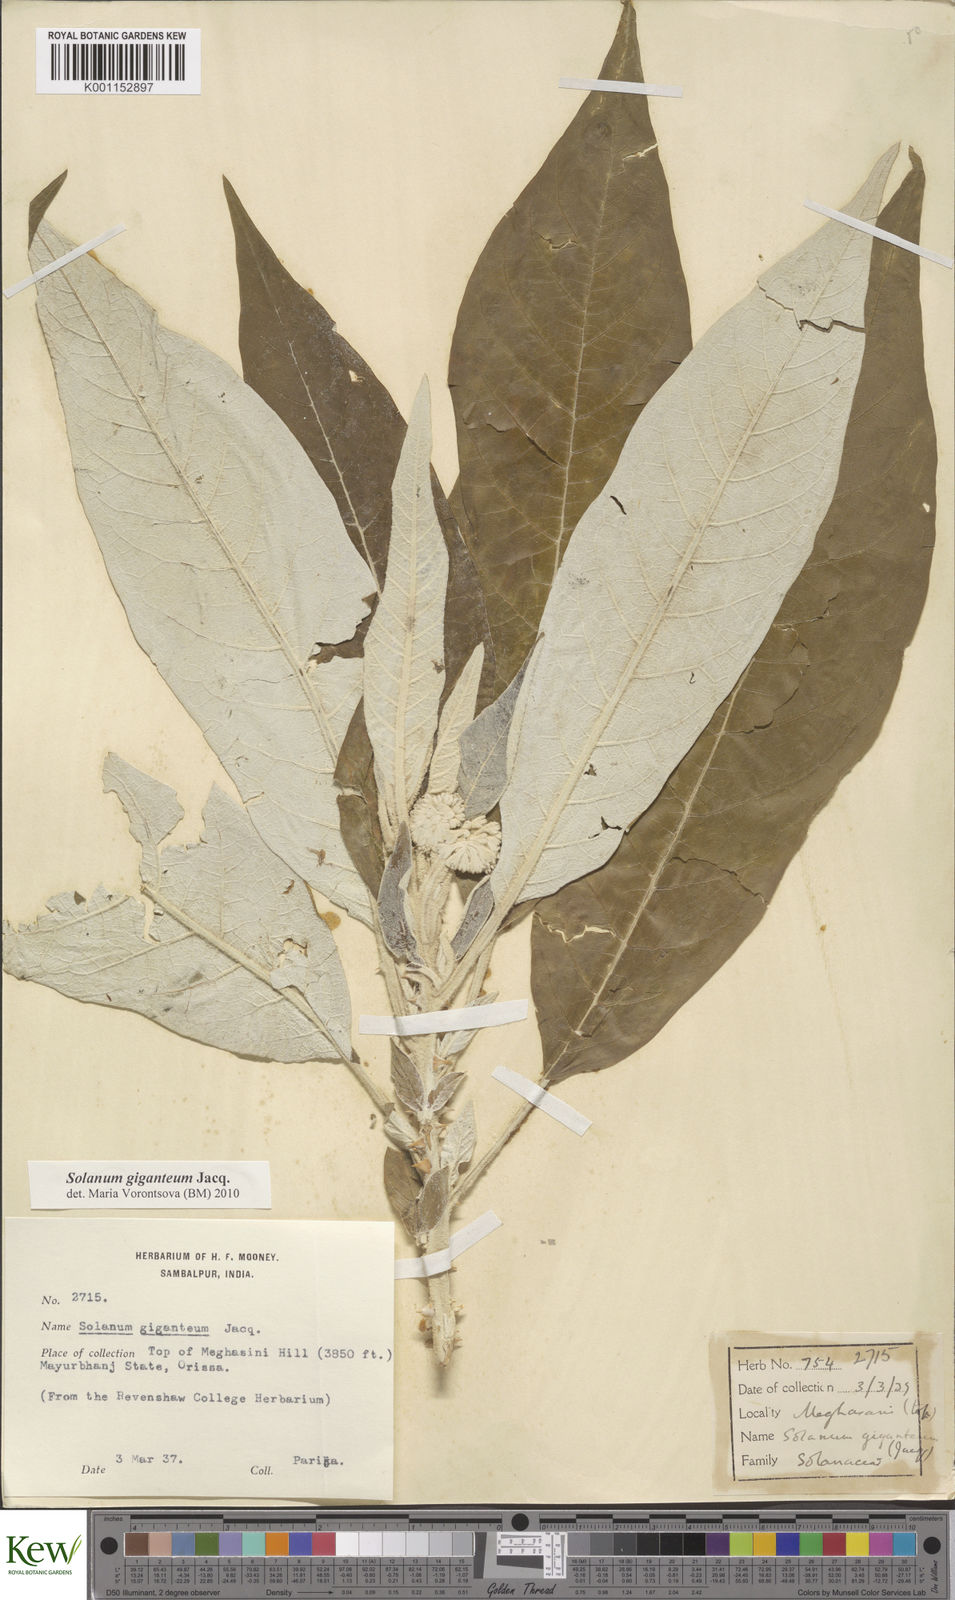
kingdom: Plantae
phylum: Tracheophyta
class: Magnoliopsida
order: Solanales
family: Solanaceae
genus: Solanum
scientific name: Solanum giganteum
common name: Healing-leaf-tree
